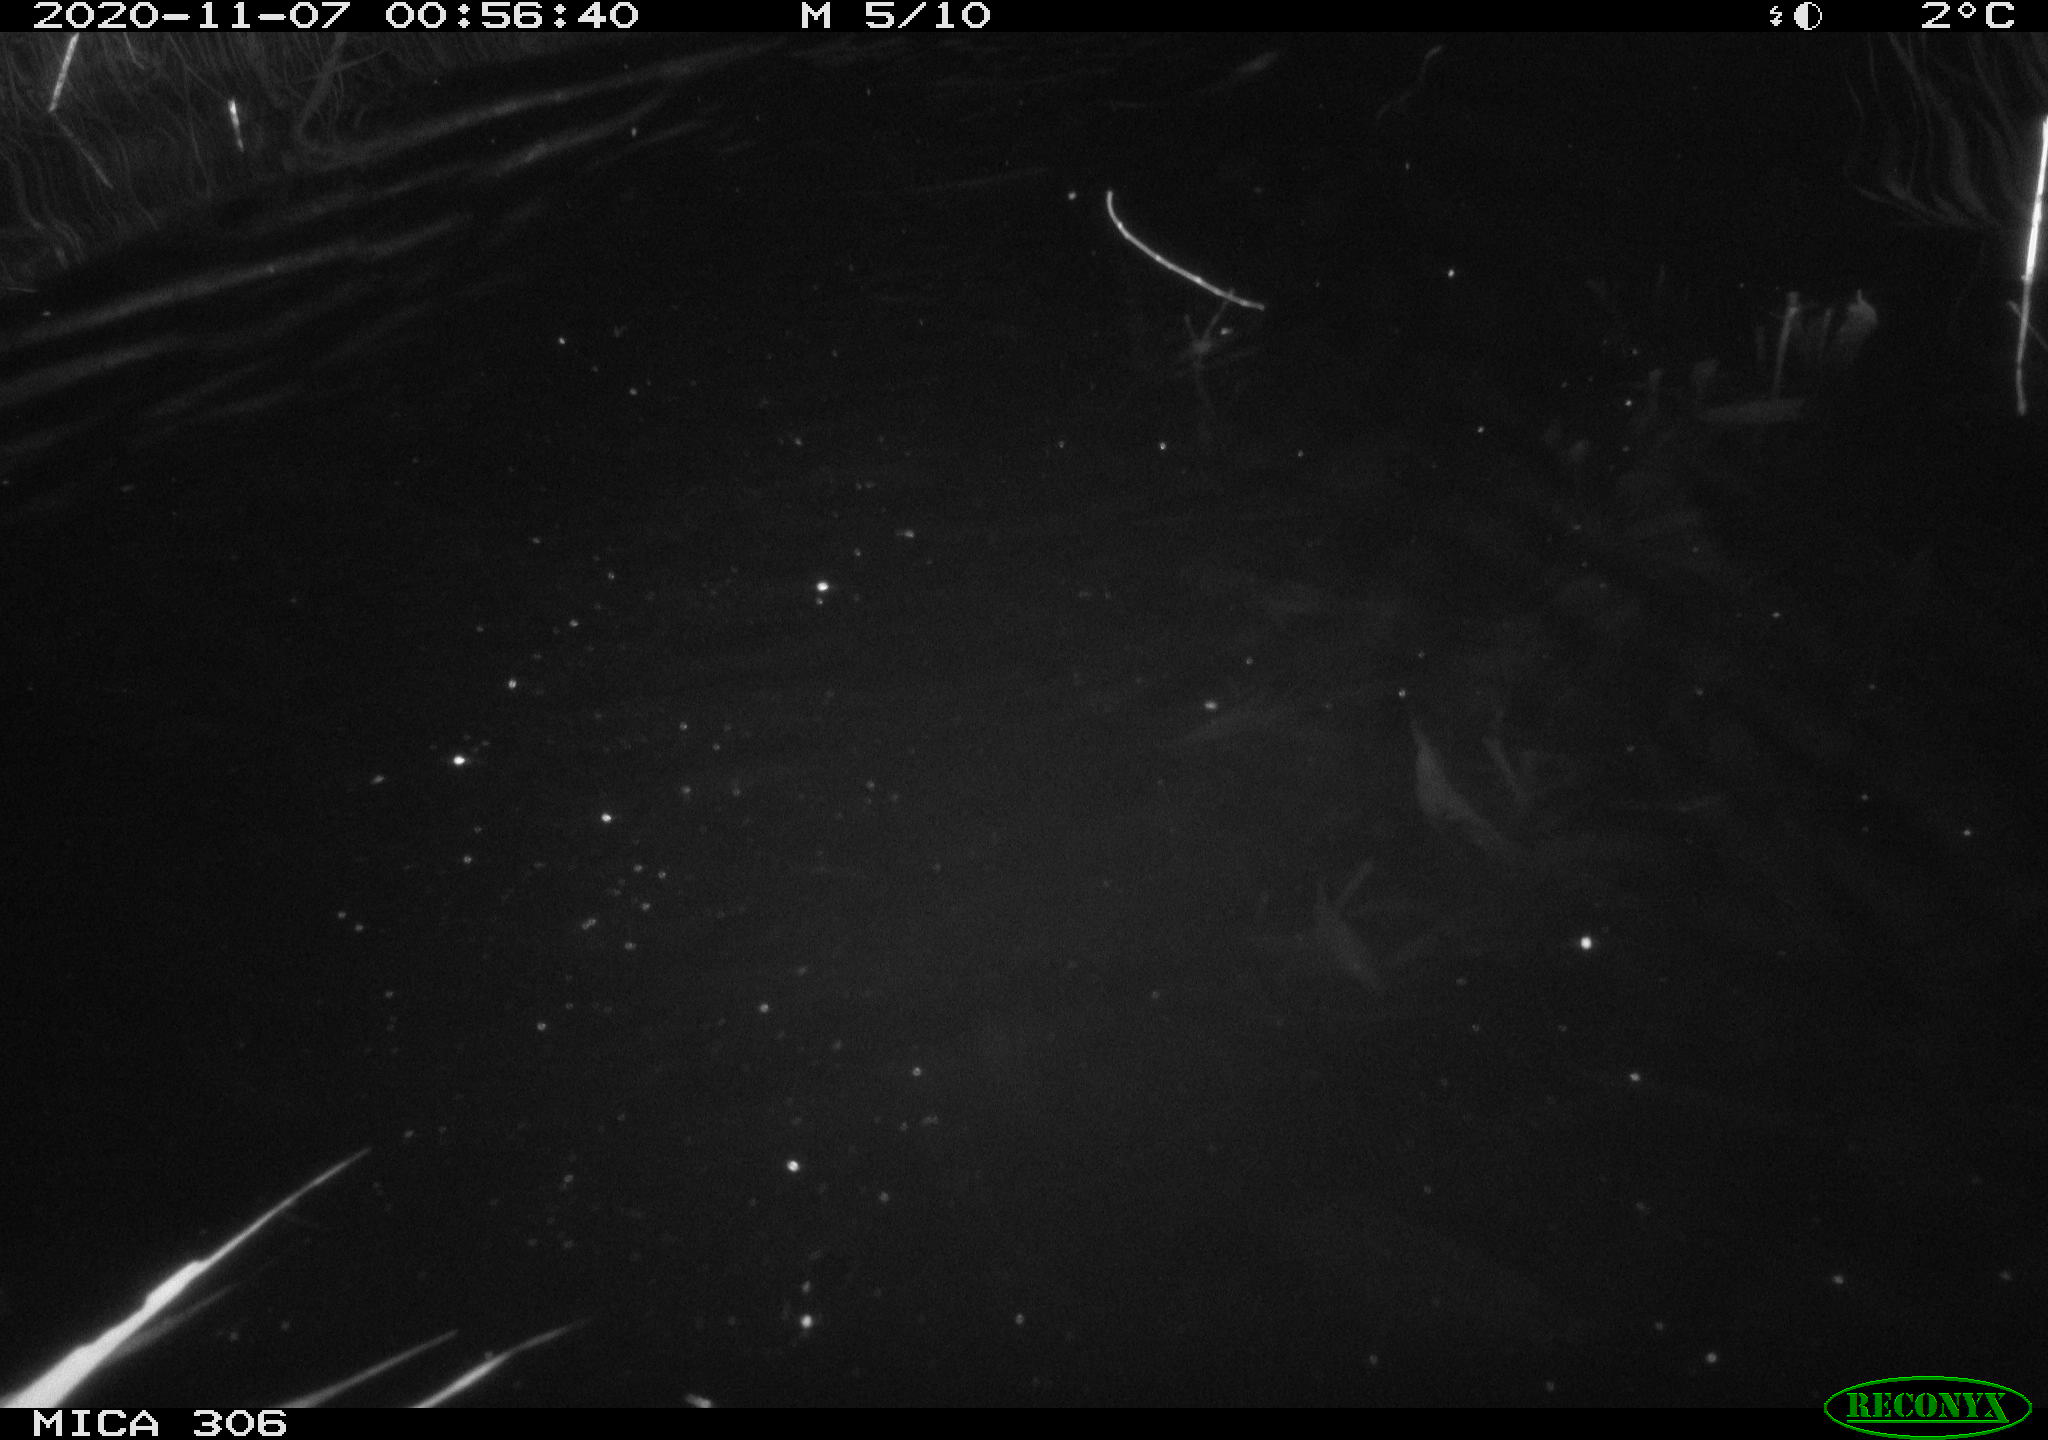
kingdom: Animalia
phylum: Chordata
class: Mammalia
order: Rodentia
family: Cricetidae
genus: Ondatra
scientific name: Ondatra zibethicus
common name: Muskrat
